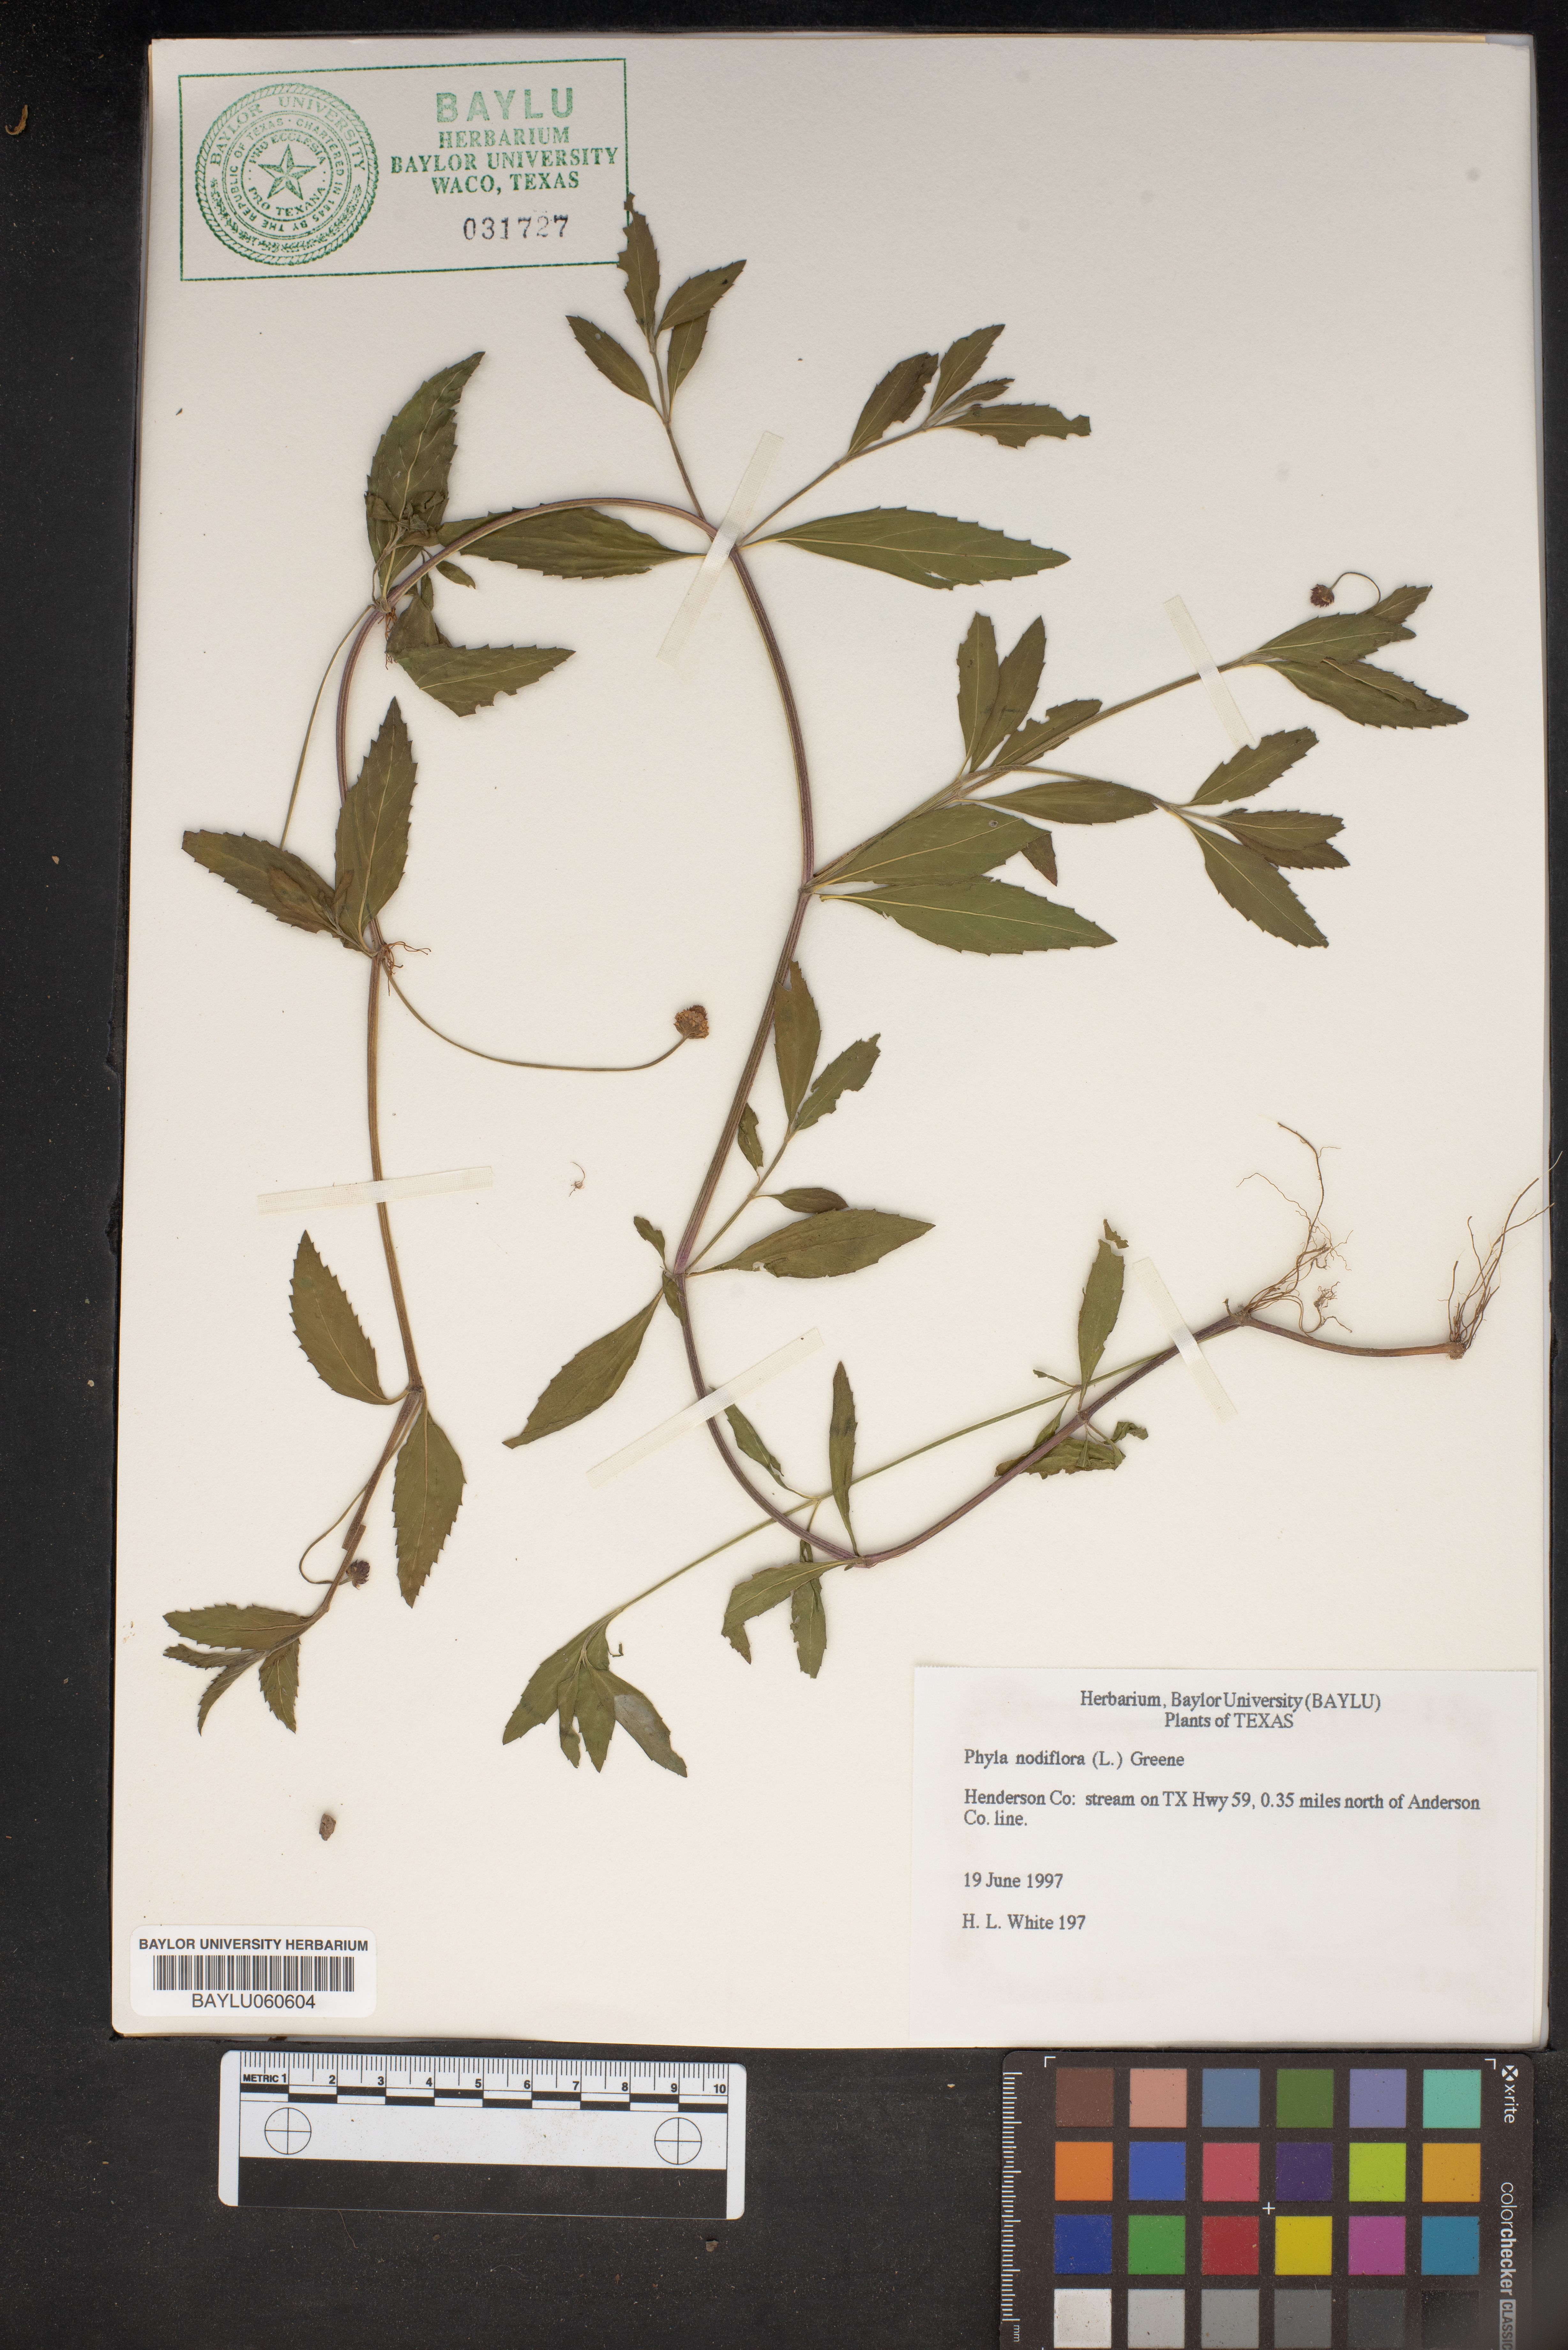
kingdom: Plantae
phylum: Tracheophyta
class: Magnoliopsida
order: Lamiales
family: Verbenaceae
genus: Phyla
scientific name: Phyla nodiflora
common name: Frogfruit
